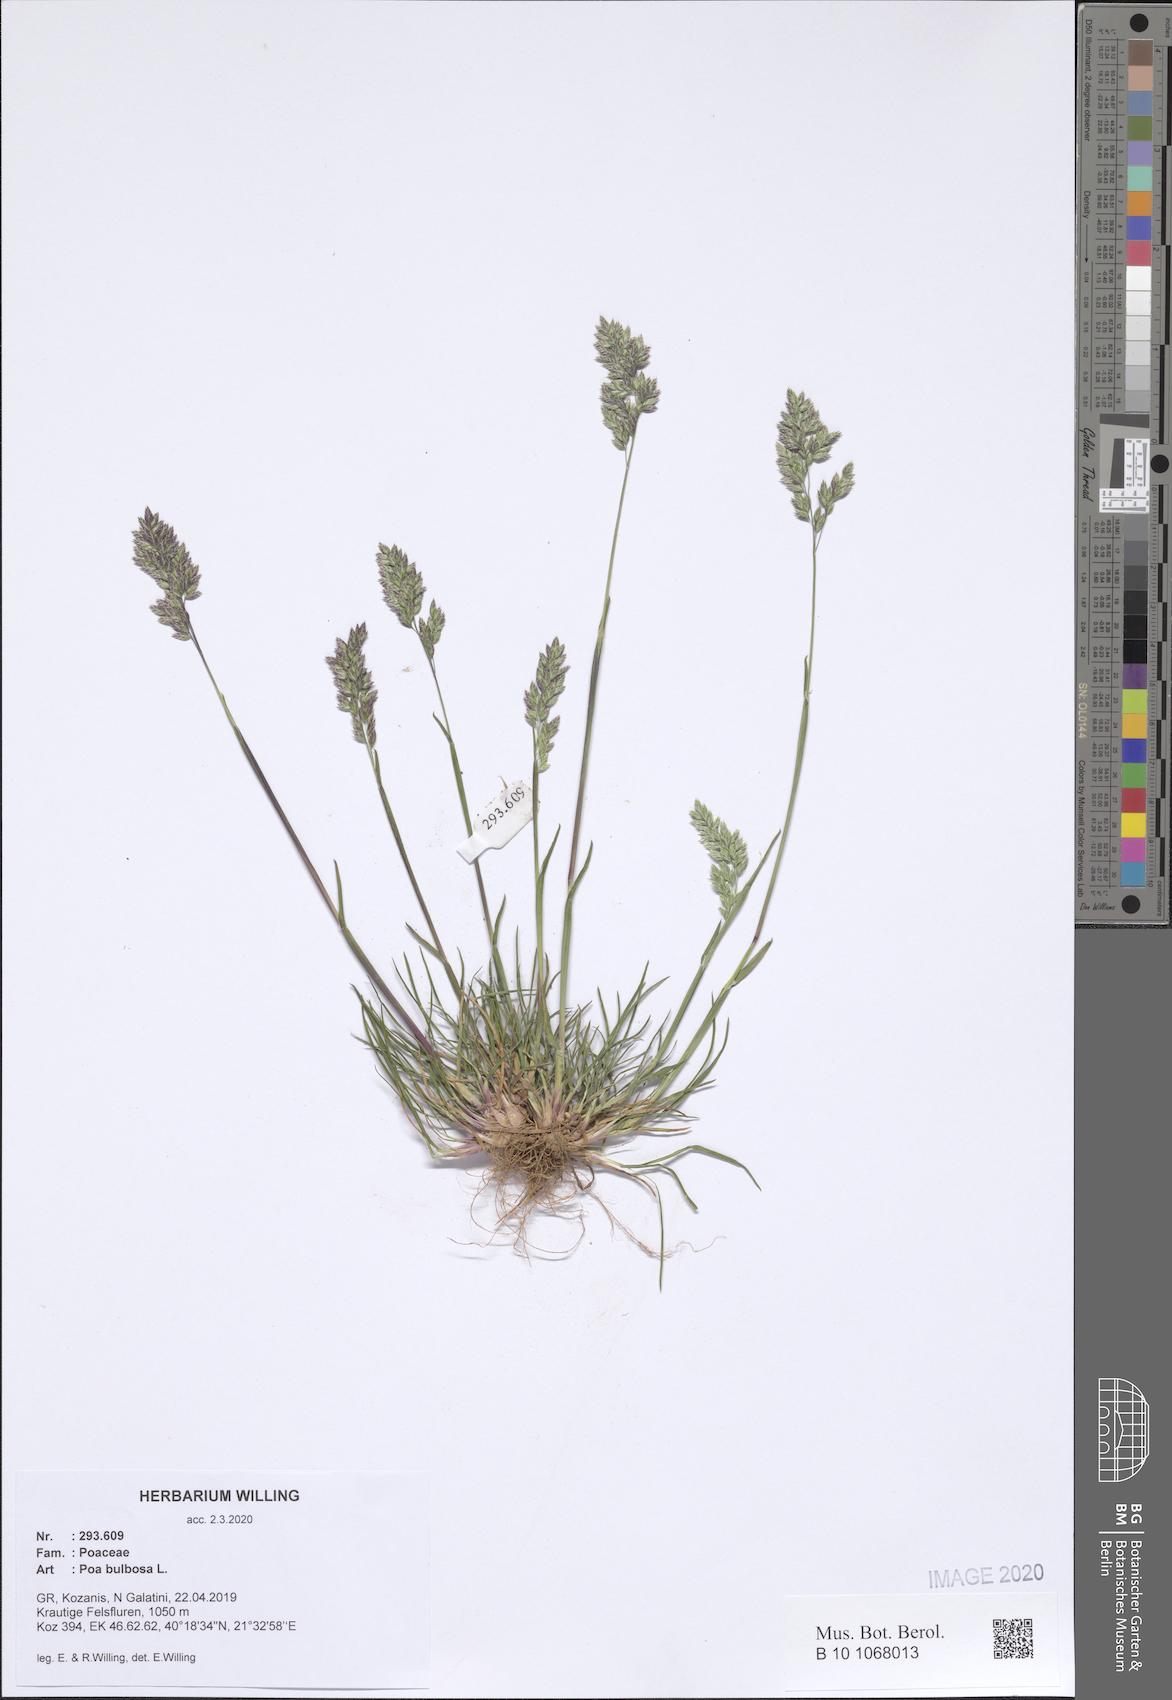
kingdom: Plantae
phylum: Tracheophyta
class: Liliopsida
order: Poales
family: Poaceae
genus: Poa
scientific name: Poa bulbosa
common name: Bulbous bluegrass
